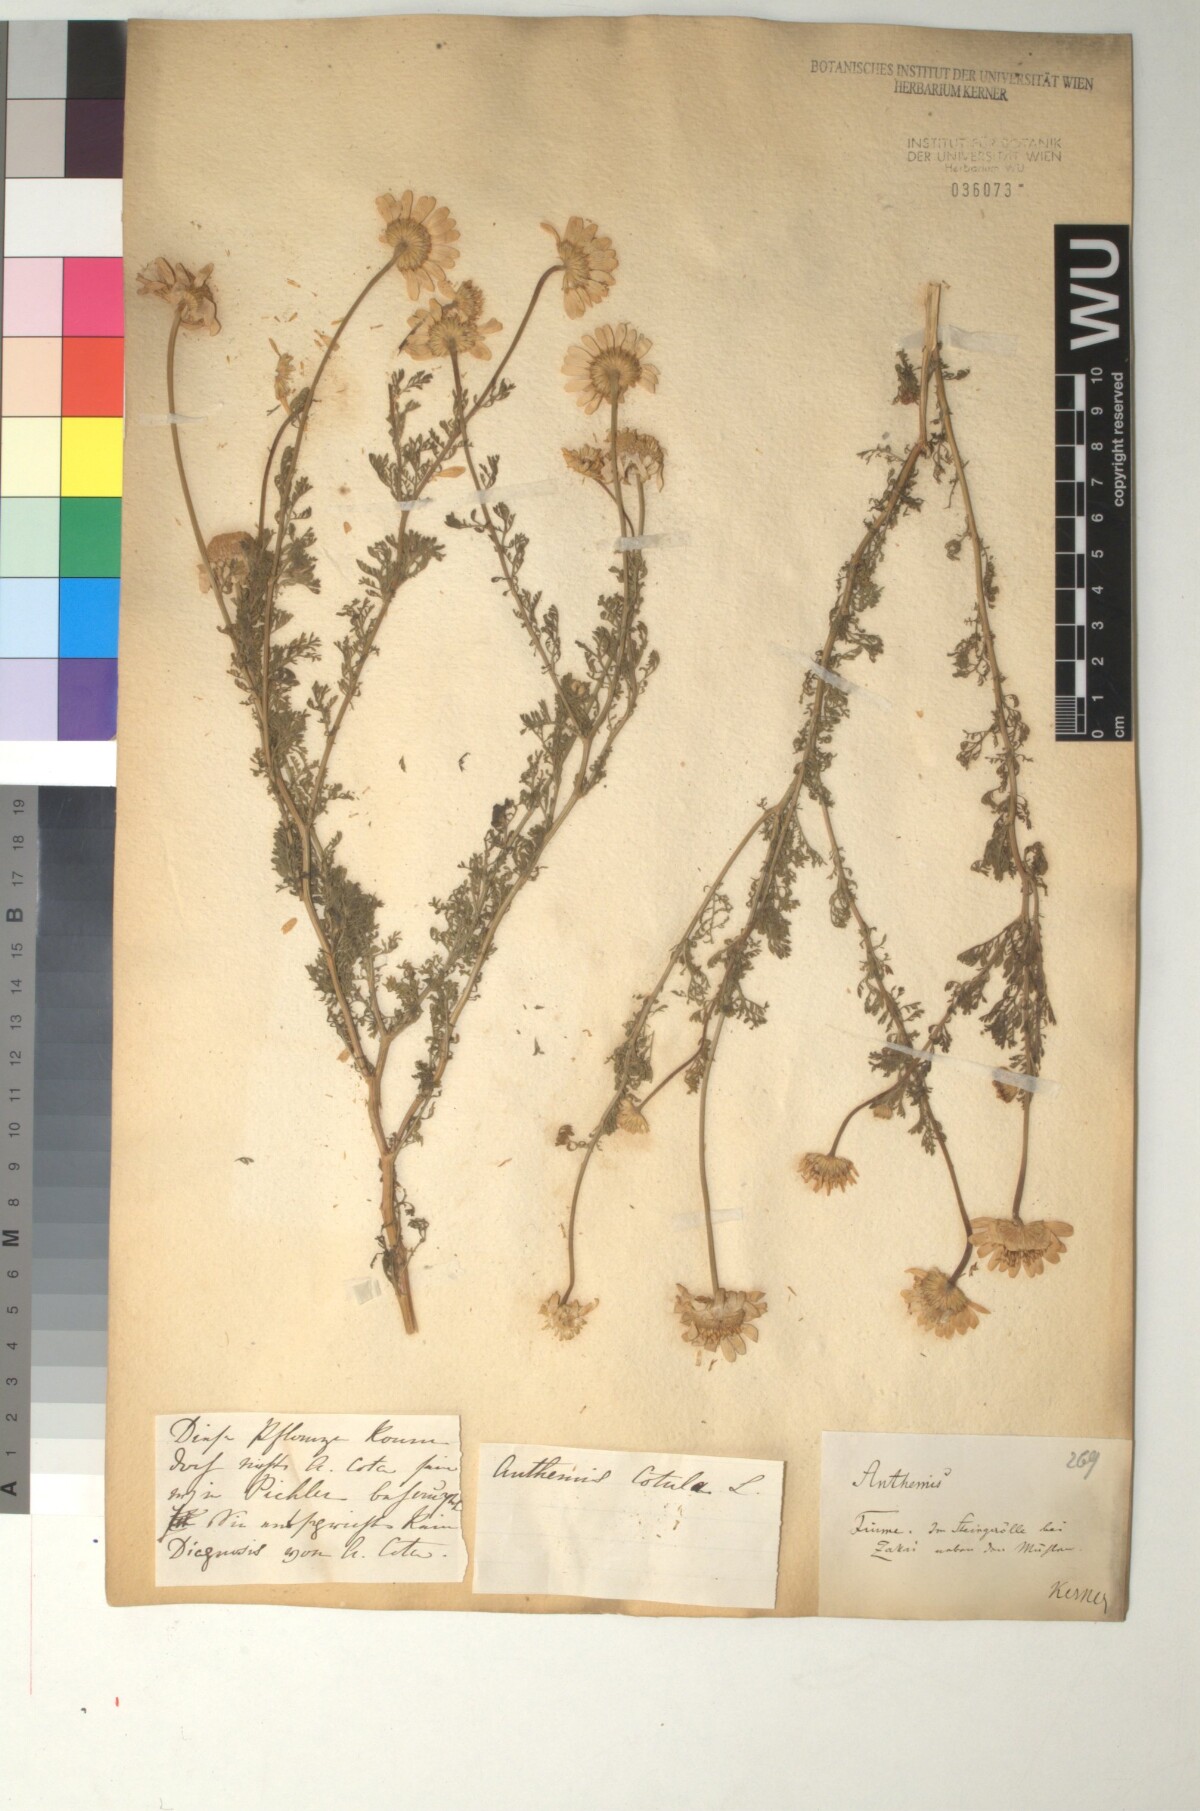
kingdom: Plantae
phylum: Tracheophyta
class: Magnoliopsida
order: Asterales
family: Asteraceae
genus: Anthemis
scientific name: Anthemis cotula
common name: Stinking chamomile
